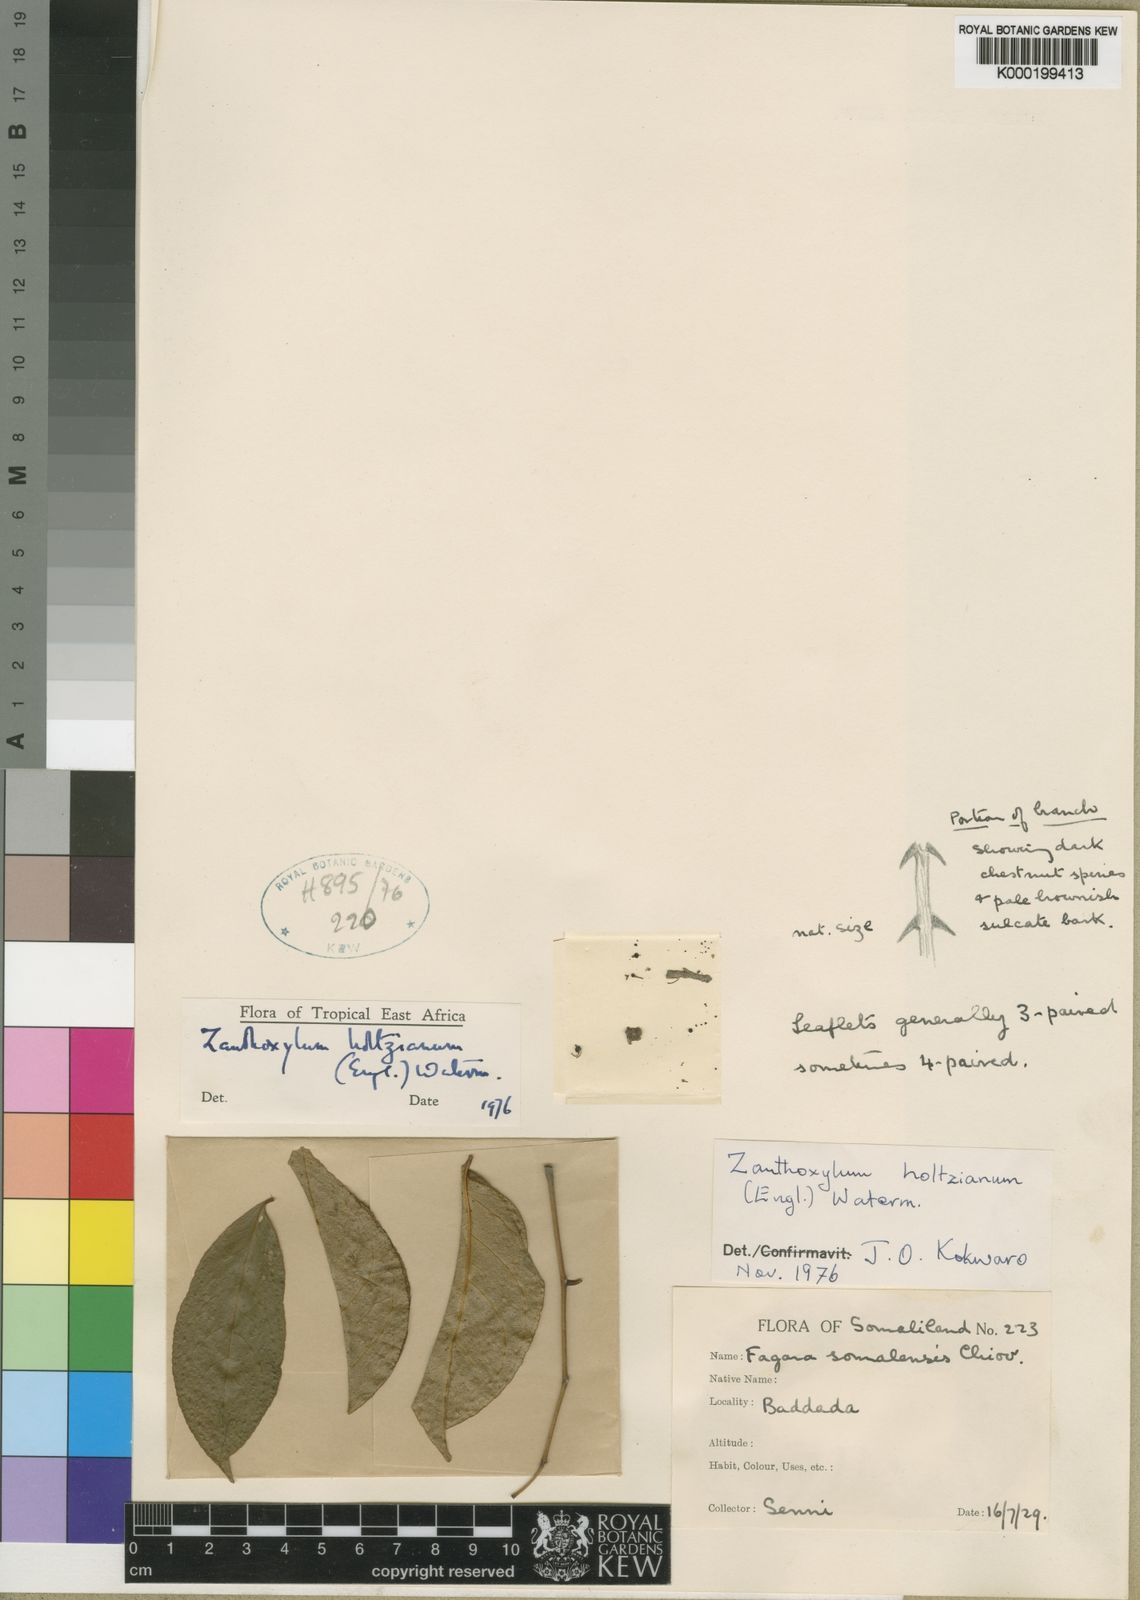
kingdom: Plantae
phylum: Tracheophyta
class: Magnoliopsida
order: Sapindales
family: Rutaceae
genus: Zanthoxylum
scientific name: Zanthoxylum holtzianum
